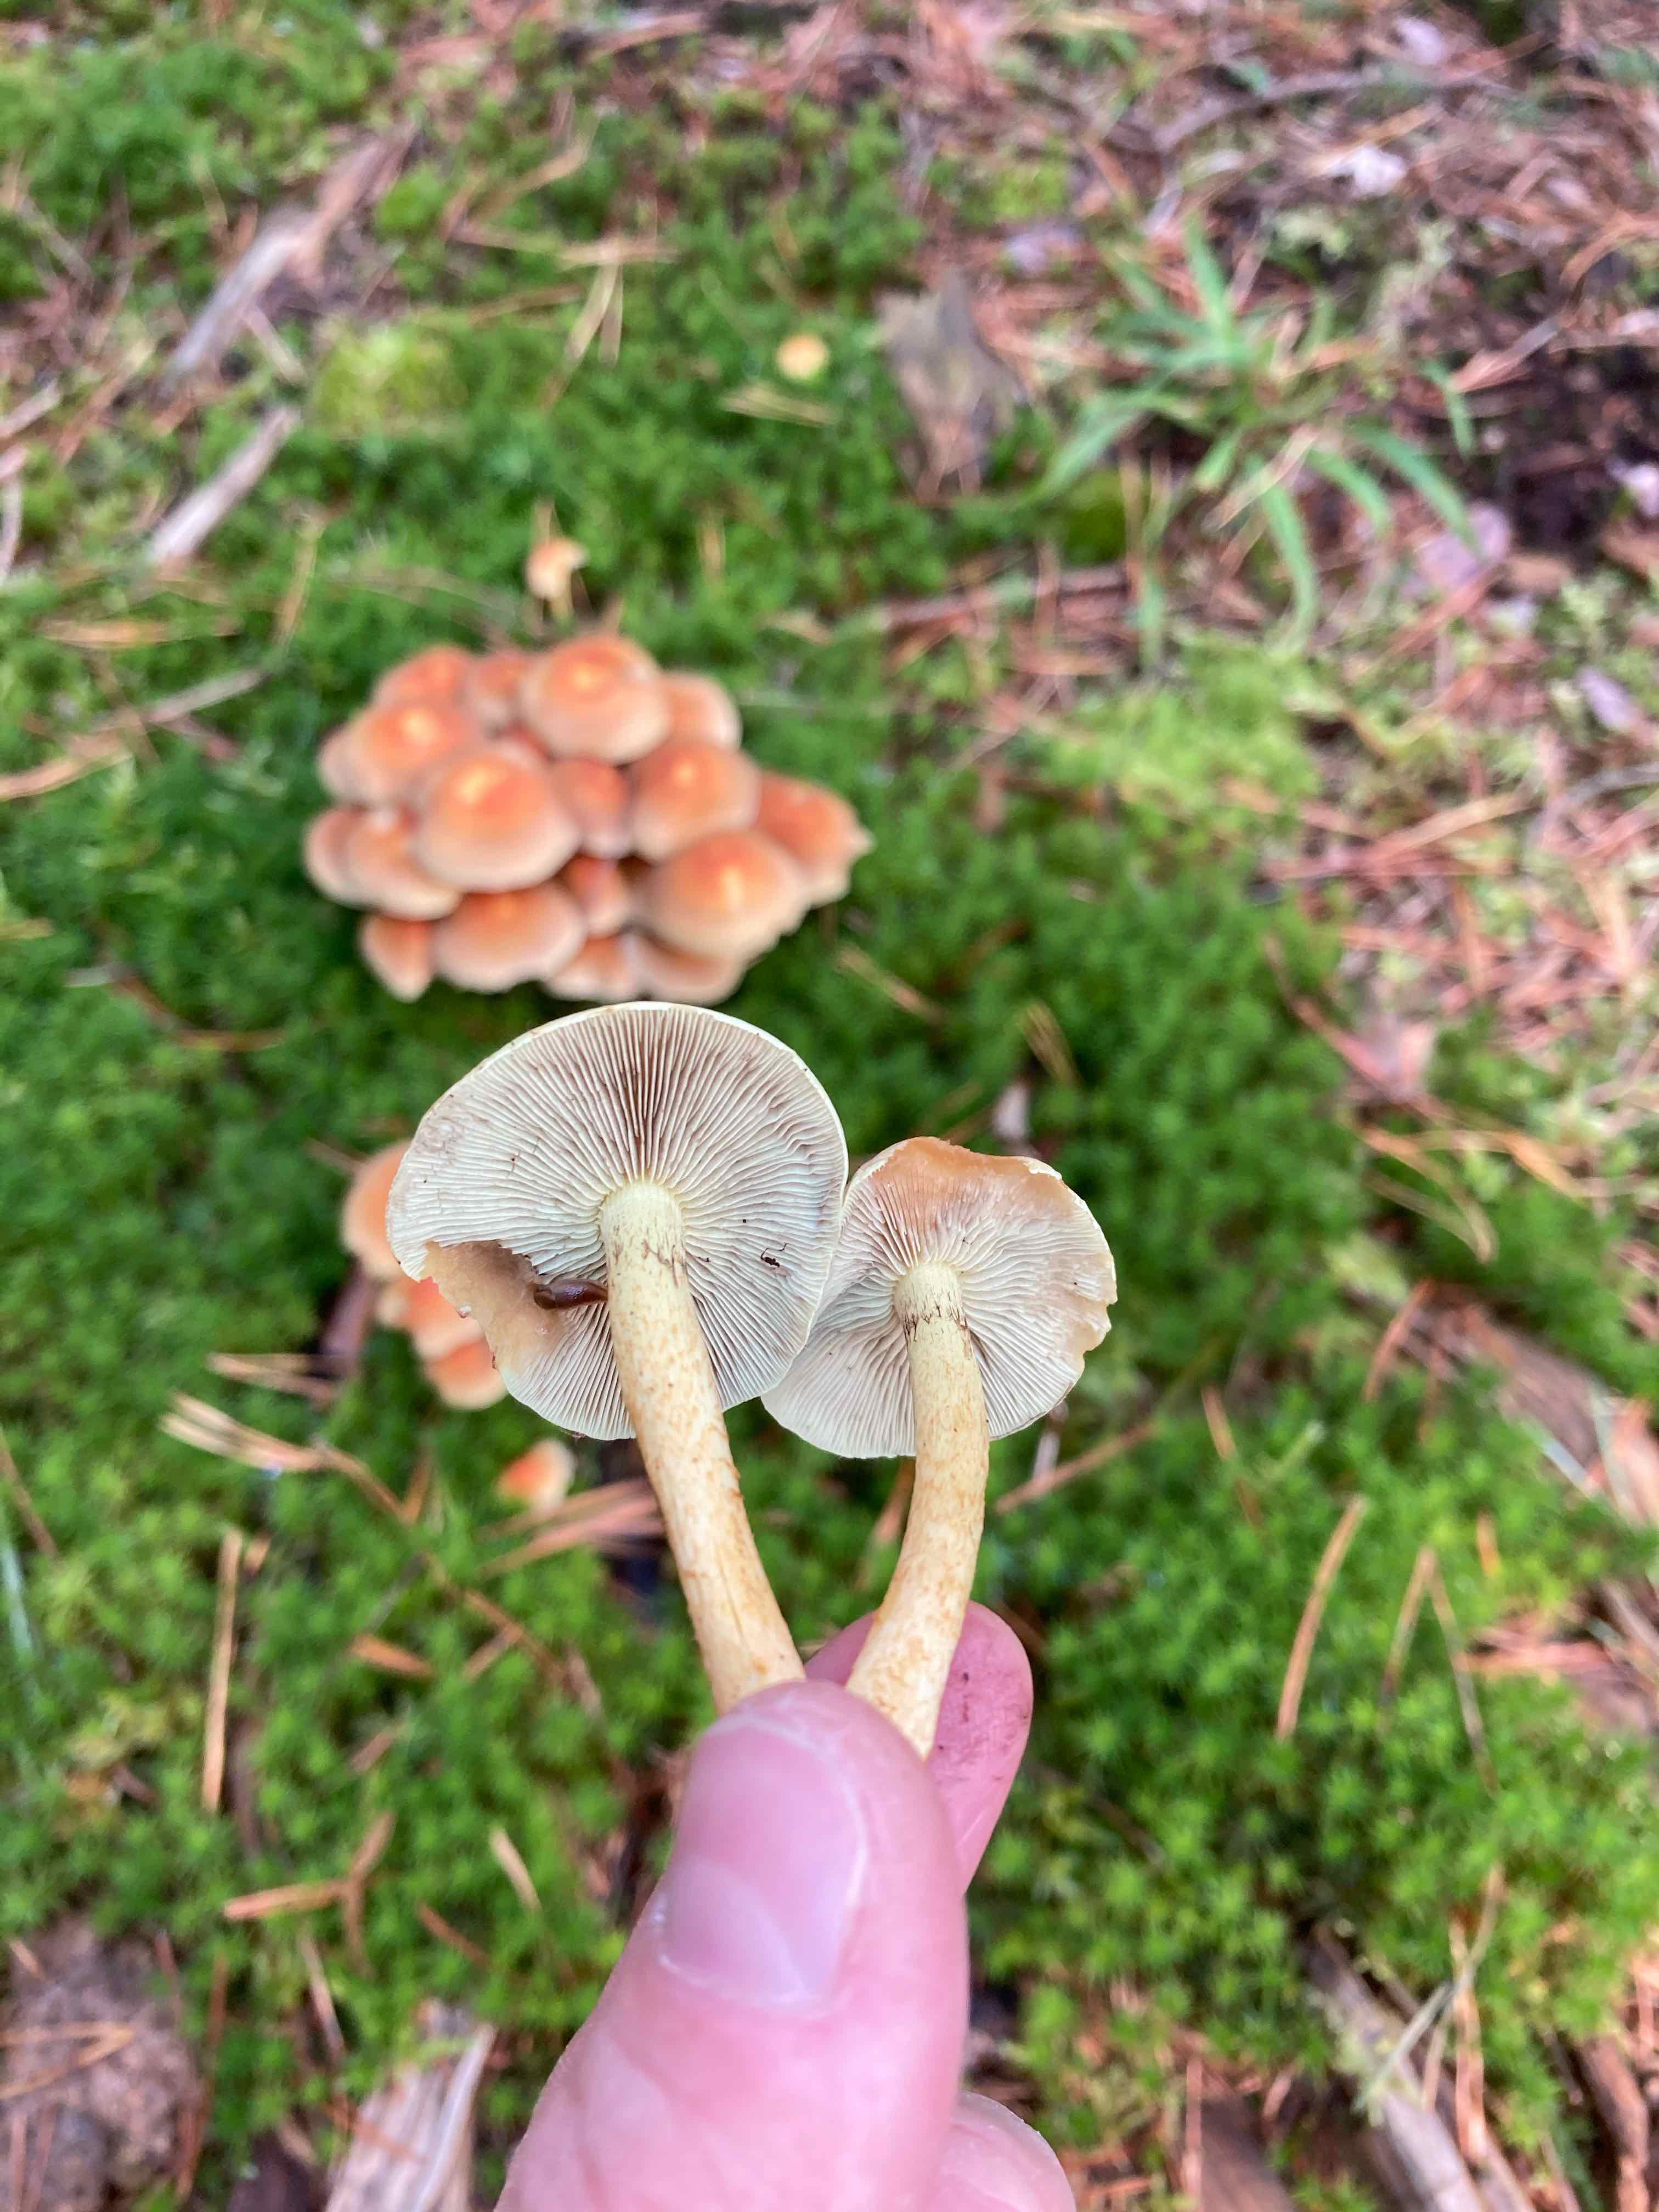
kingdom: Fungi
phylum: Basidiomycota
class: Agaricomycetes
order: Agaricales
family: Strophariaceae
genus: Hypholoma
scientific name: Hypholoma capnoides
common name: gran-svovlhat
